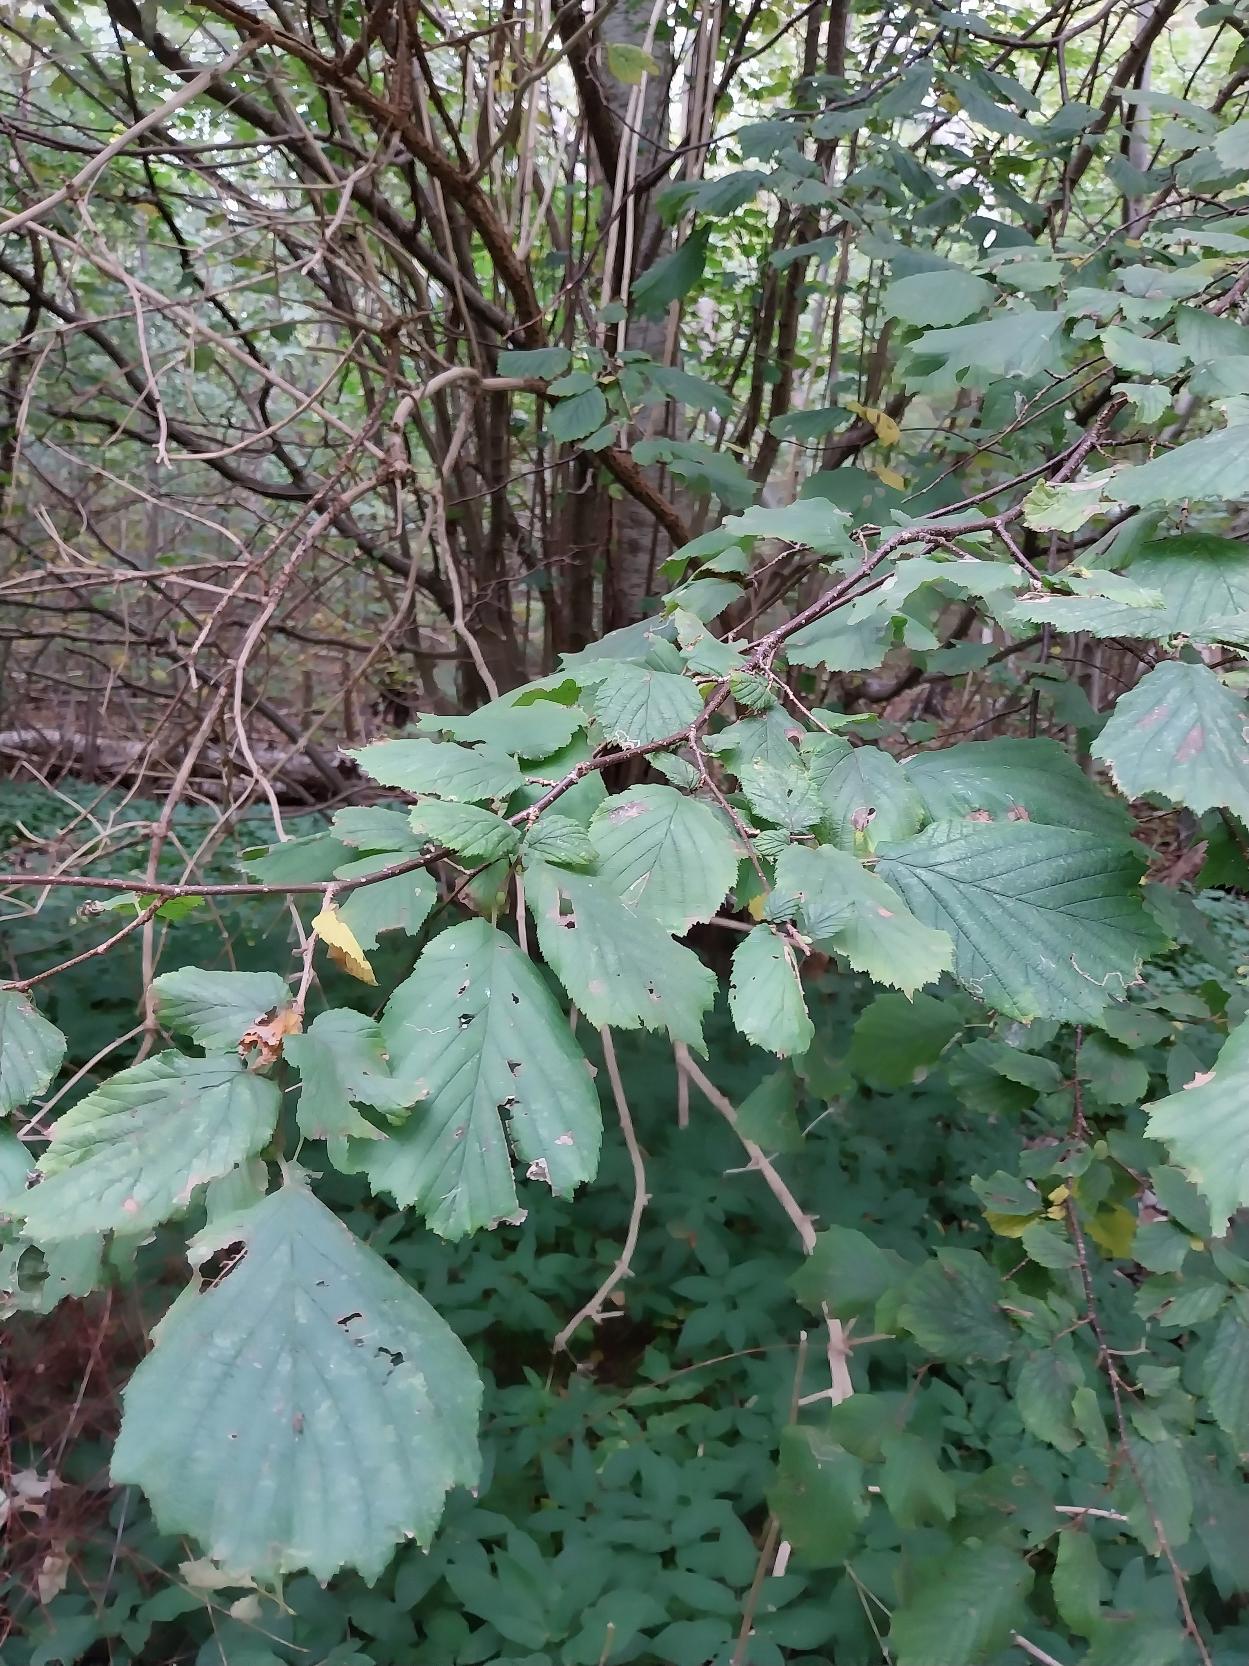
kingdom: Plantae
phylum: Tracheophyta
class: Magnoliopsida
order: Fagales
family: Betulaceae
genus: Corylus
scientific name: Corylus avellana
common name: Hassel
